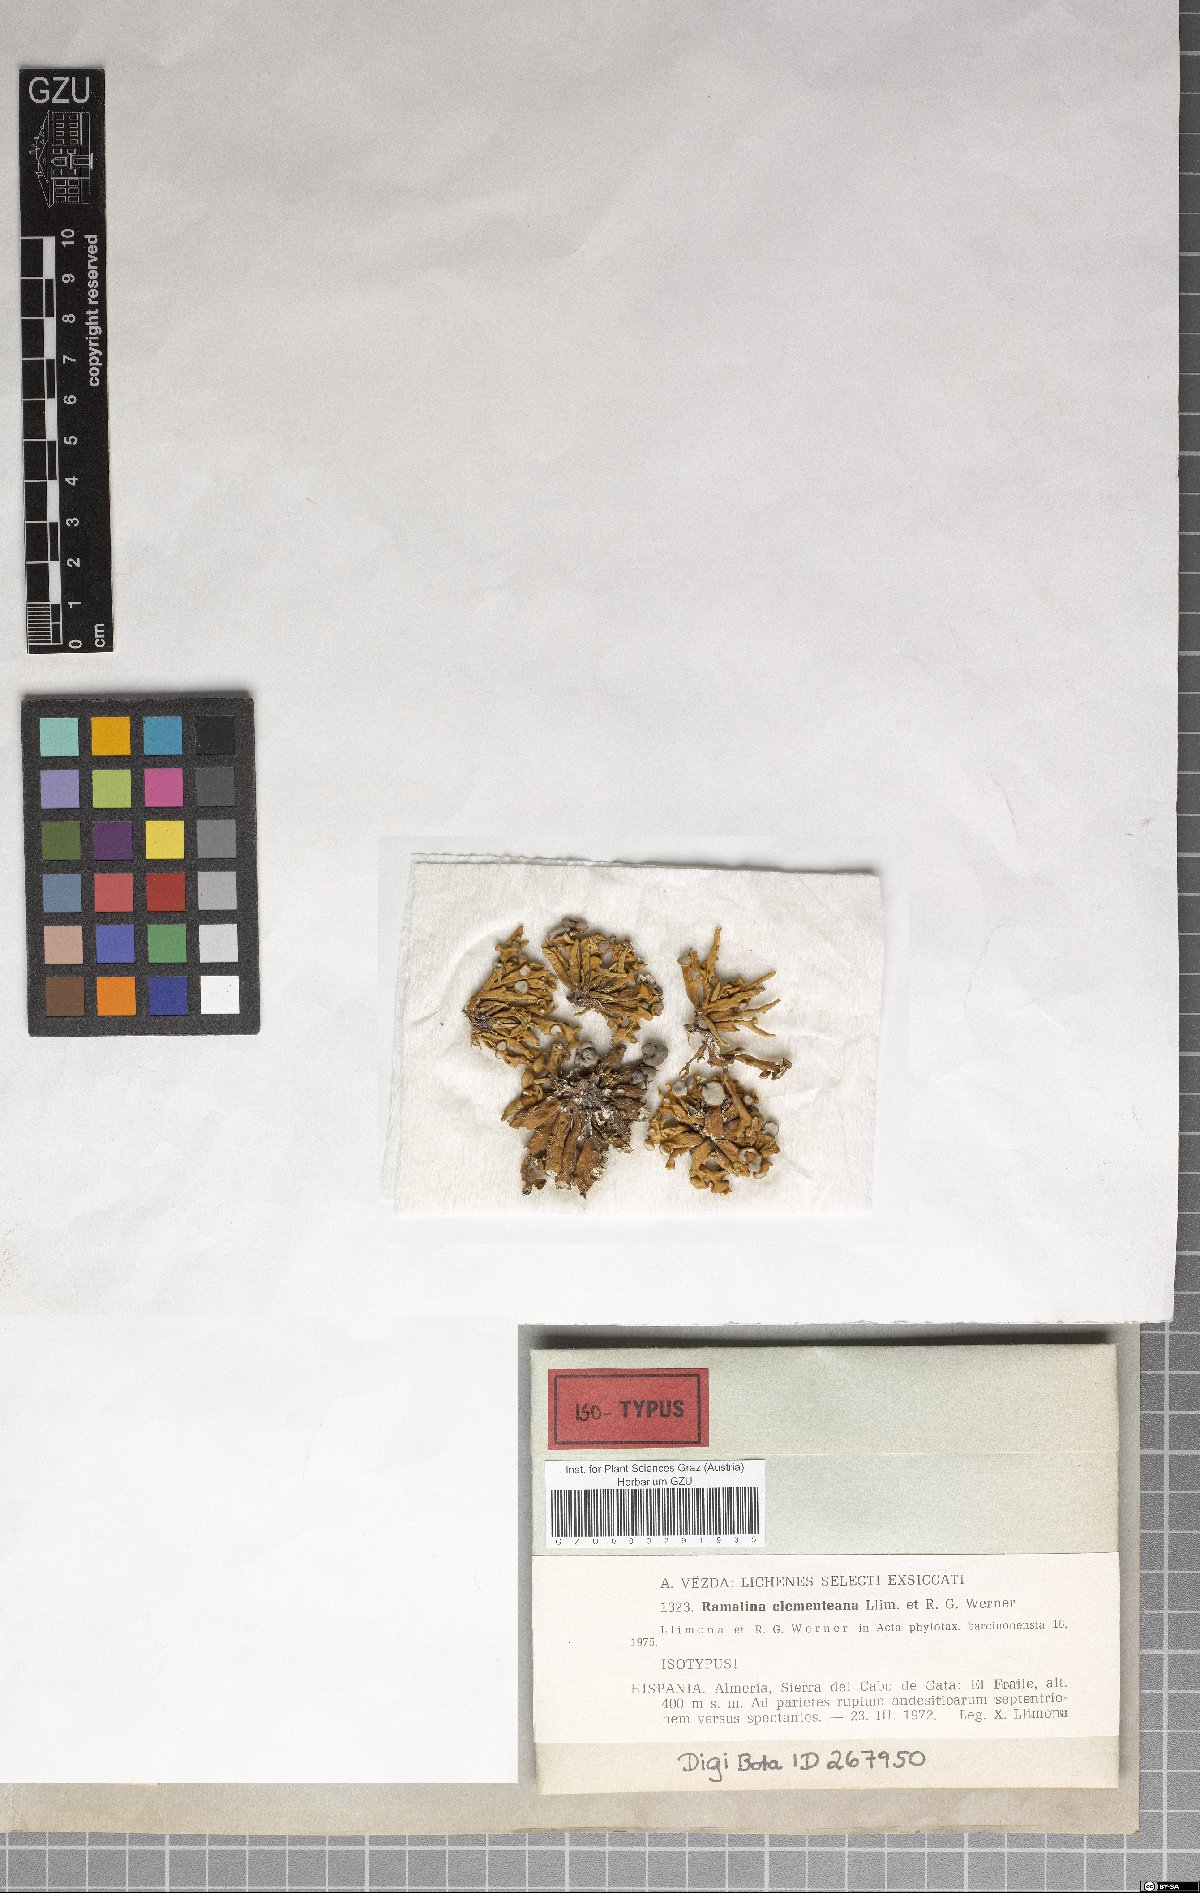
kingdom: Fungi
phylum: Ascomycota
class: Lecanoromycetes
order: Lecanorales
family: Ramalinaceae
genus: Ramalina
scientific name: Ramalina clementeana
